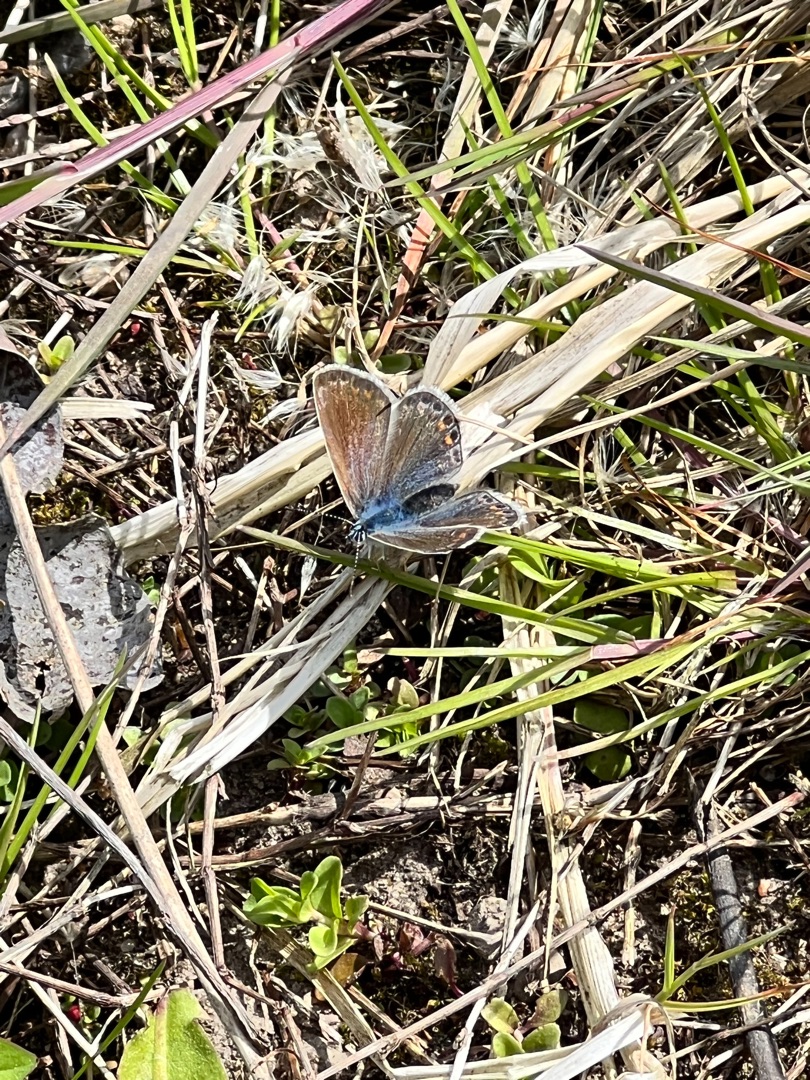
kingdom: Animalia
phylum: Arthropoda
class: Insecta
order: Lepidoptera
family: Lycaenidae
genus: Polyommatus
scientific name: Polyommatus icarus
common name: Almindelig blåfugl
